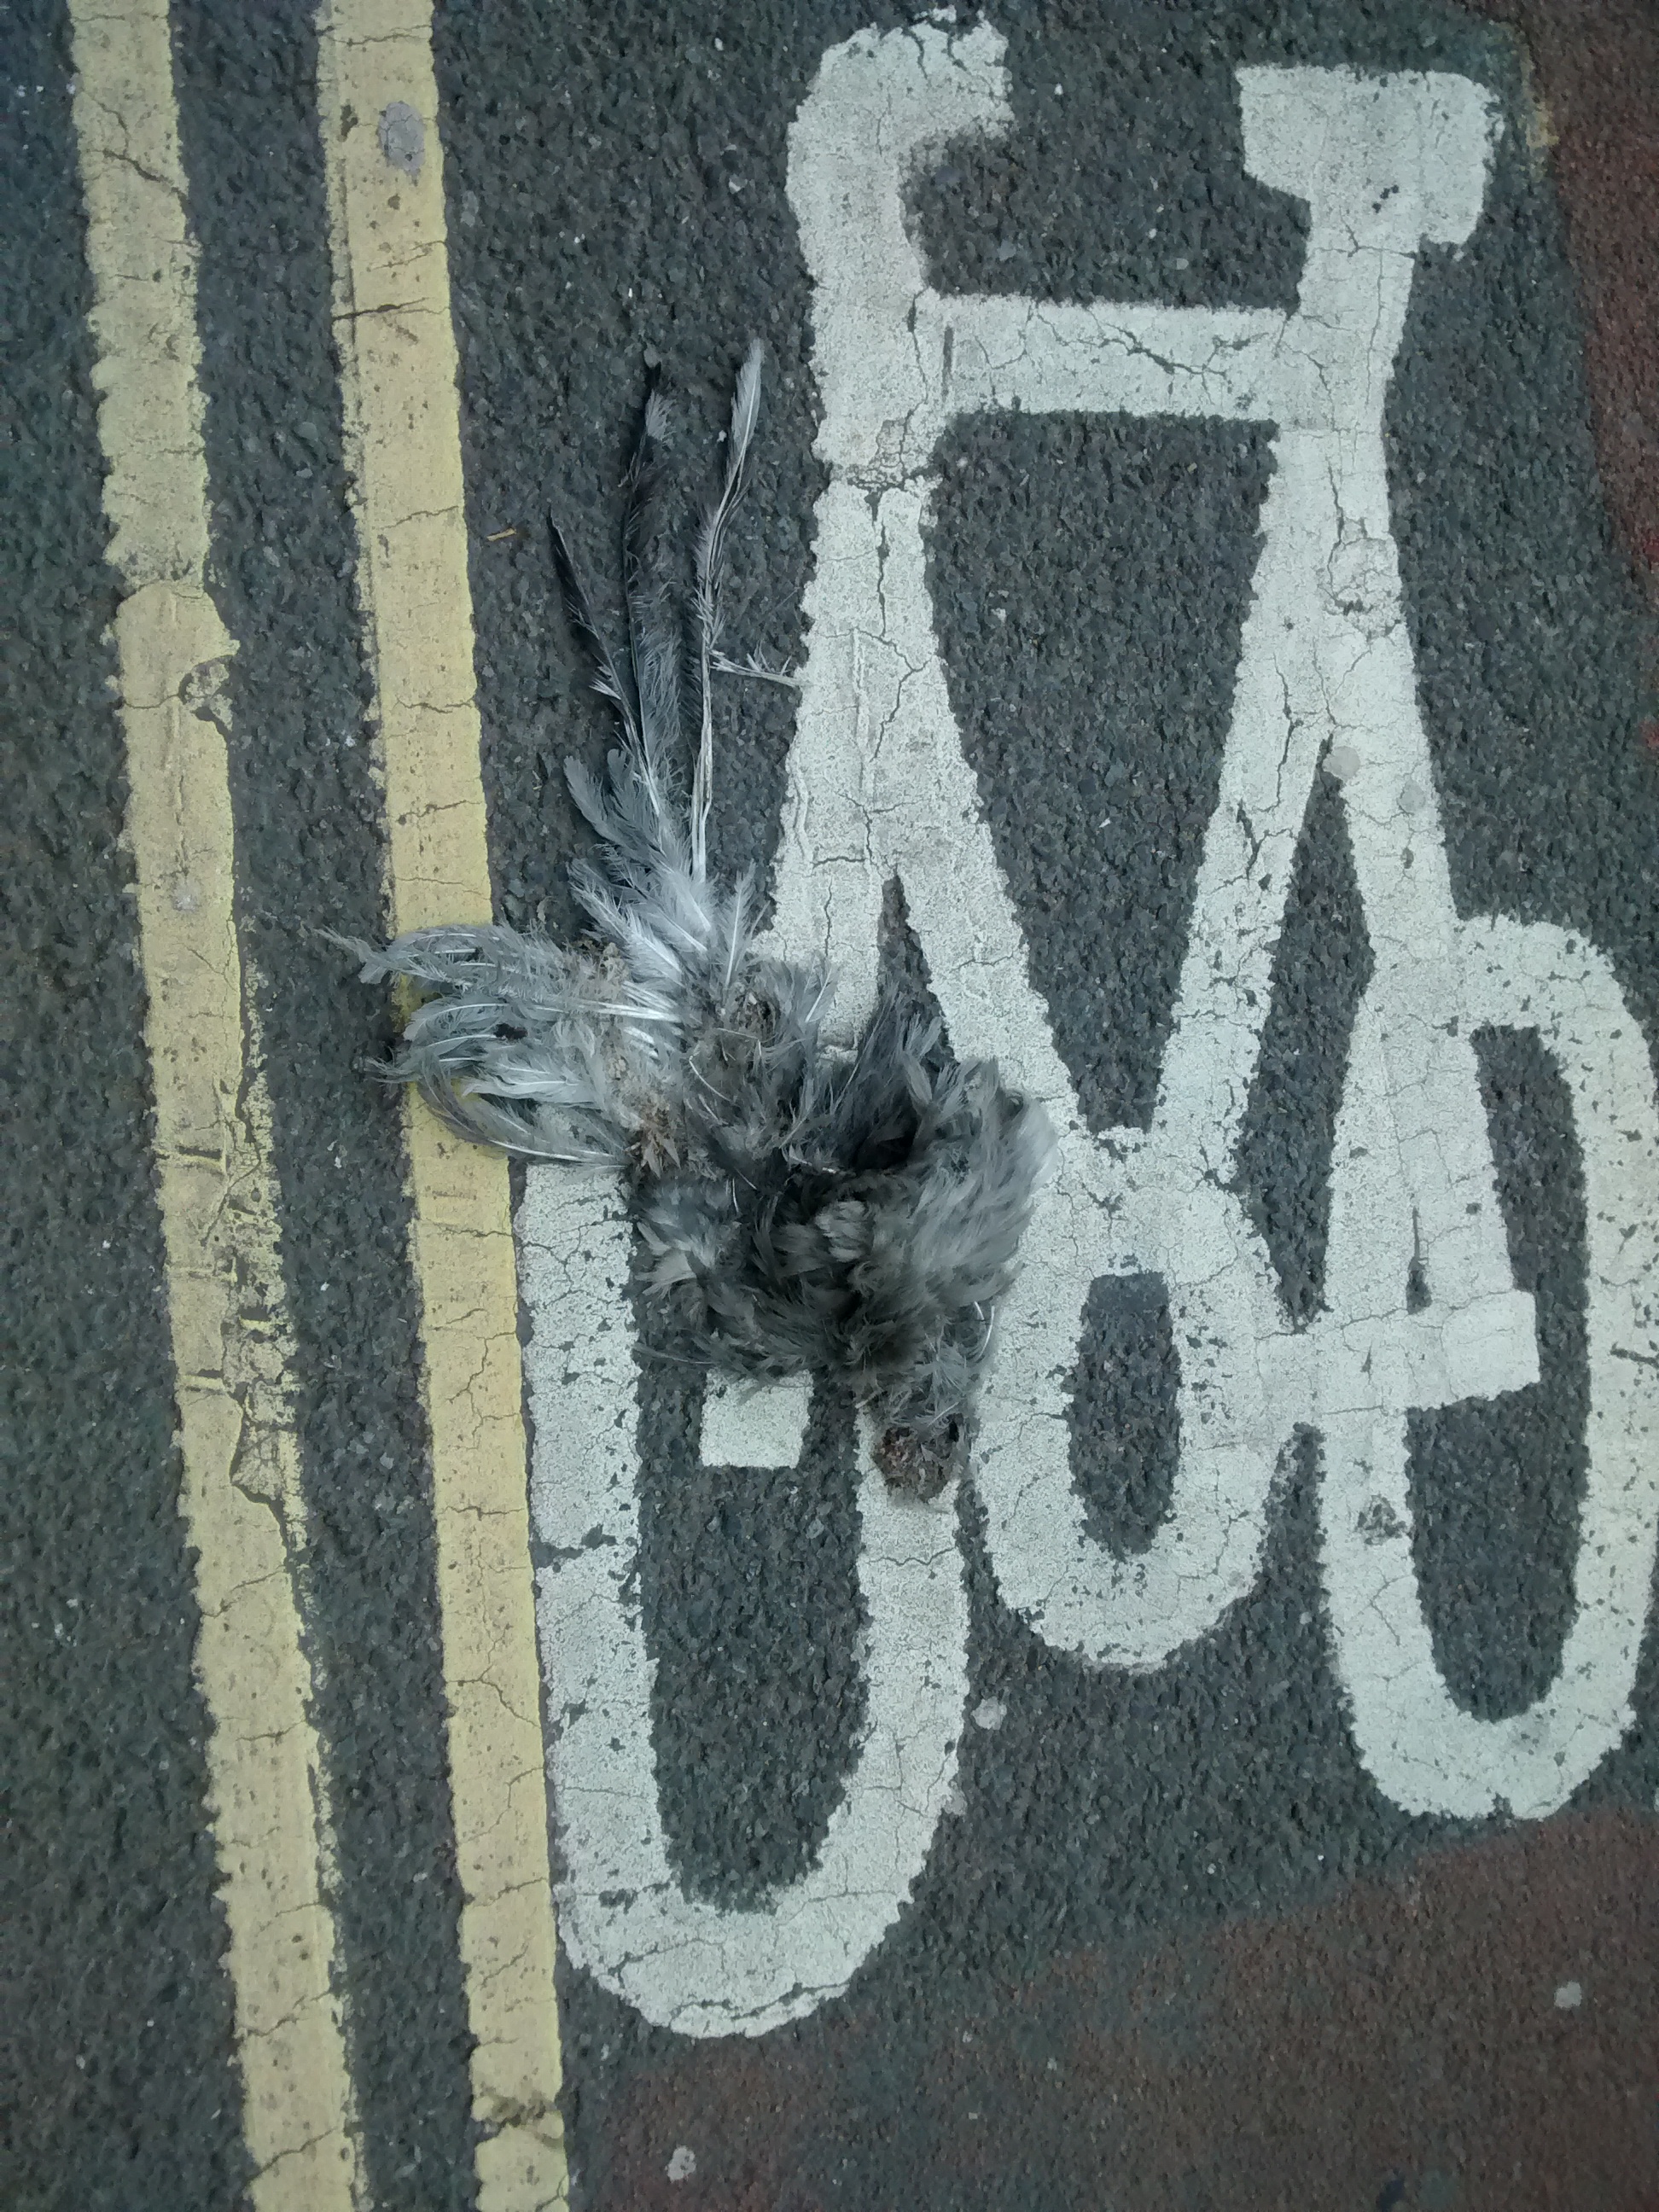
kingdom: Animalia
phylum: Chordata
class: Aves
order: Columbiformes
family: Columbidae
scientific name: Columbidae
